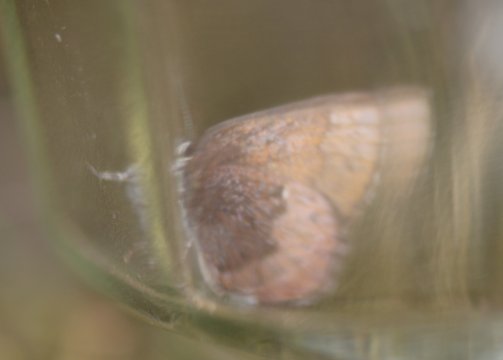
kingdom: Animalia
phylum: Arthropoda
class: Insecta
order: Lepidoptera
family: Lycaenidae
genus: Incisalia
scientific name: Incisalia irioides
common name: Brown Elfin
